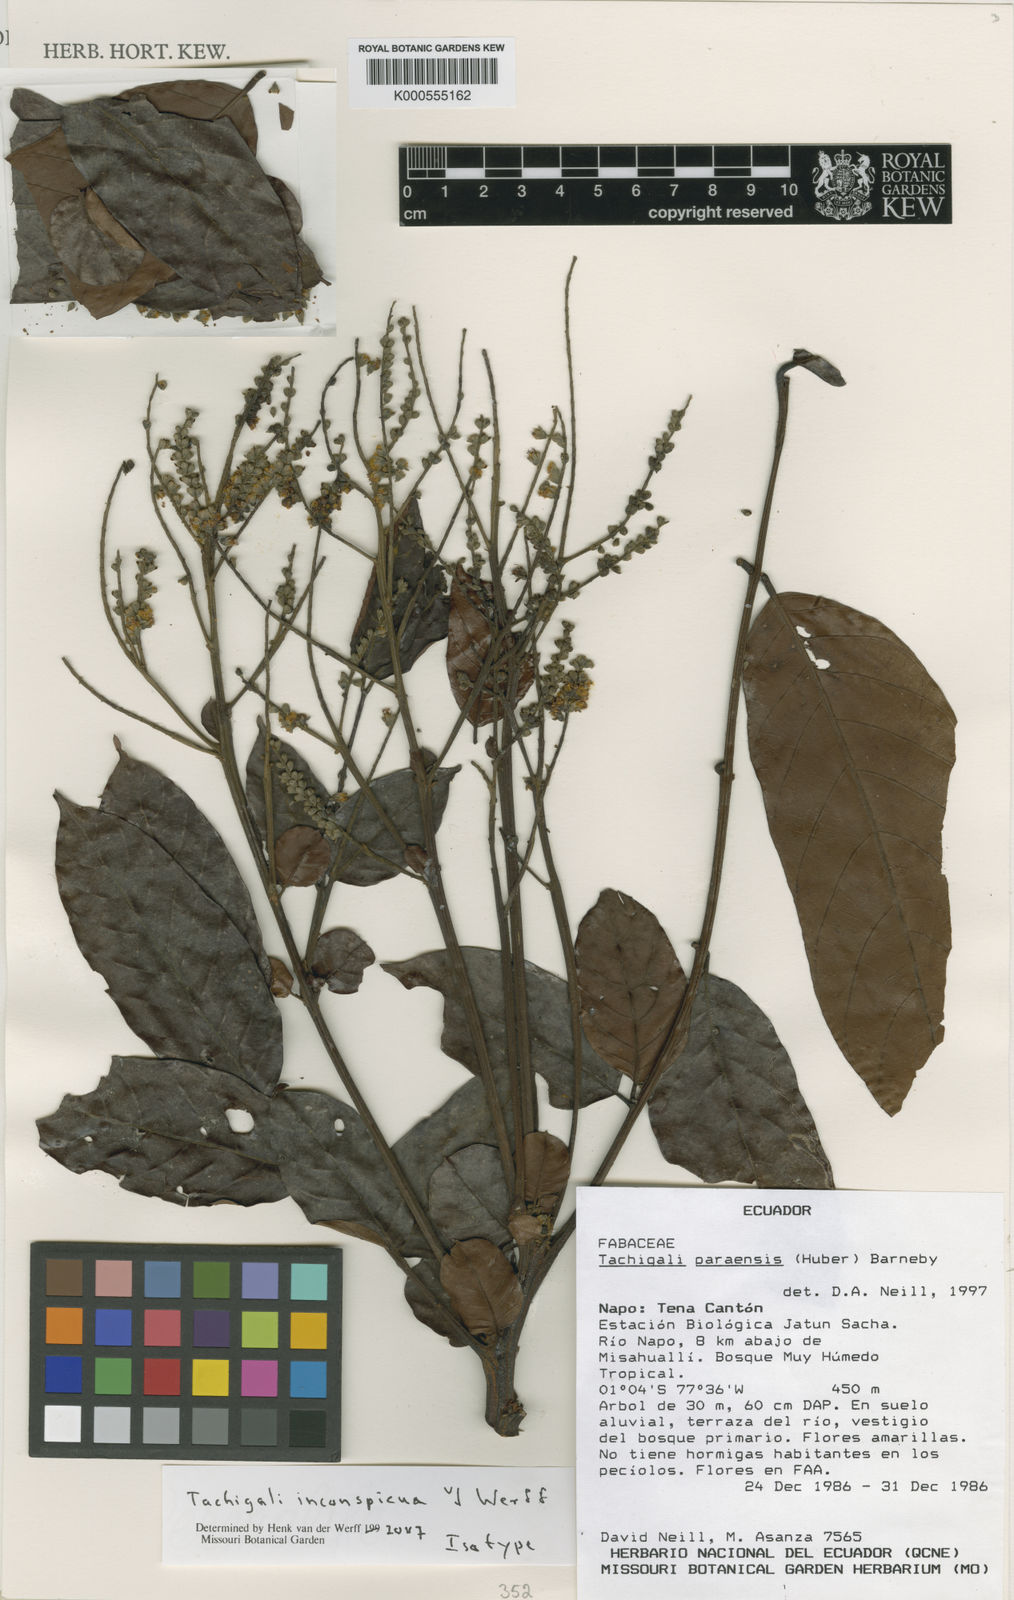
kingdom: Plantae
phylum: Tracheophyta
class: Magnoliopsida
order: Fabales
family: Fabaceae
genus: Tachigali
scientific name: Tachigali inconspicua
